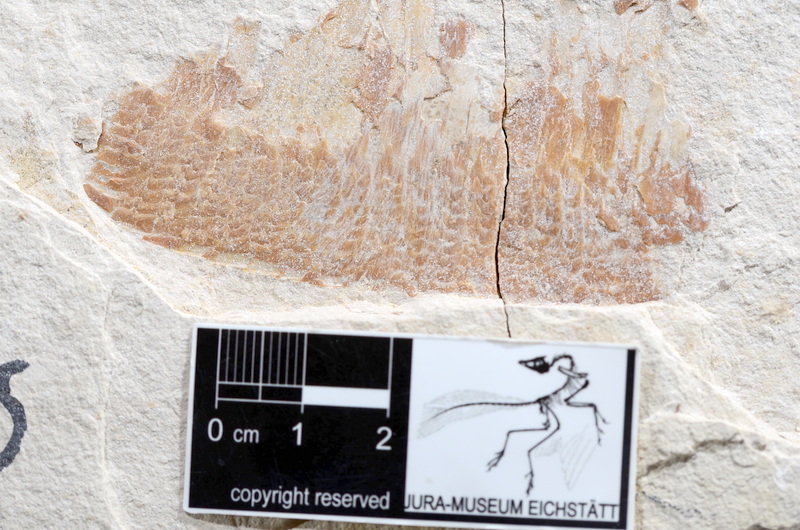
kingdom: Animalia
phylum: Chordata
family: Aspidorhynchidae
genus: Aspidorhynchus
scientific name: Aspidorhynchus
